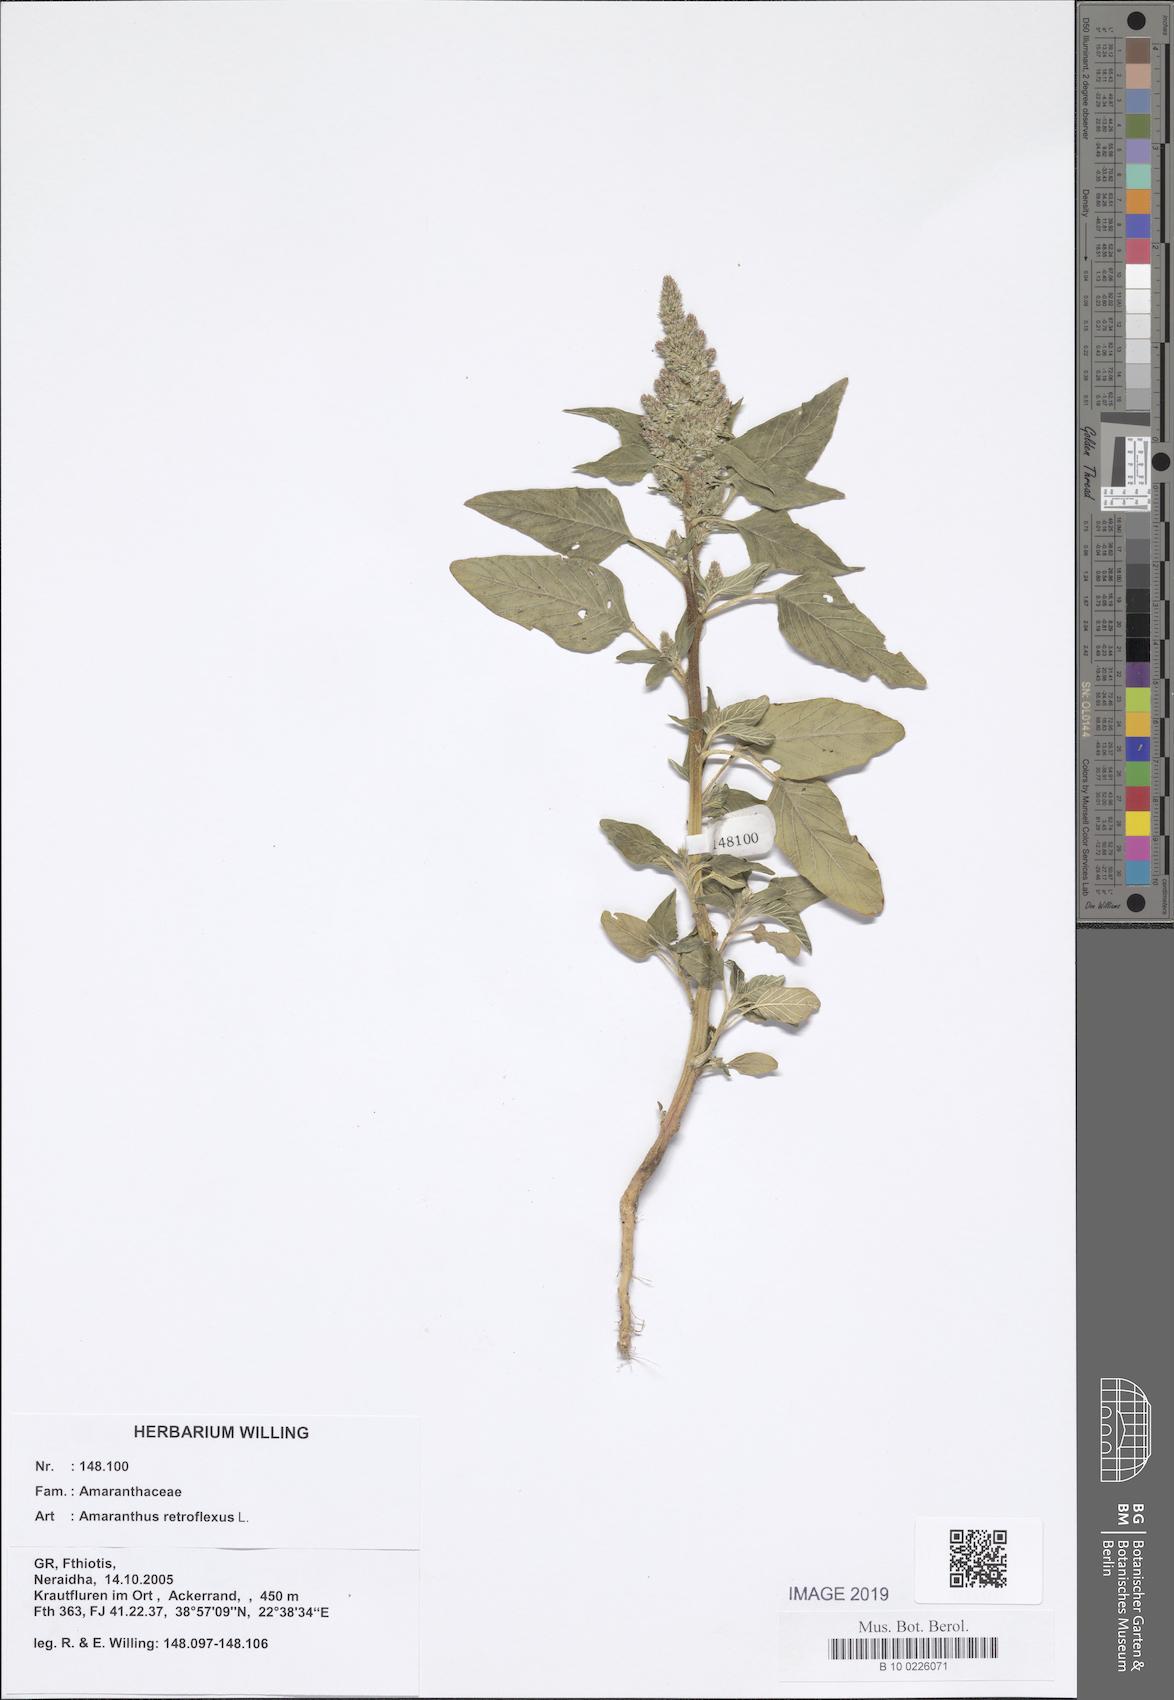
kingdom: Plantae
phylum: Tracheophyta
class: Magnoliopsida
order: Caryophyllales
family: Amaranthaceae
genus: Amaranthus
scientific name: Amaranthus retroflexus
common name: Redroot amaranth
